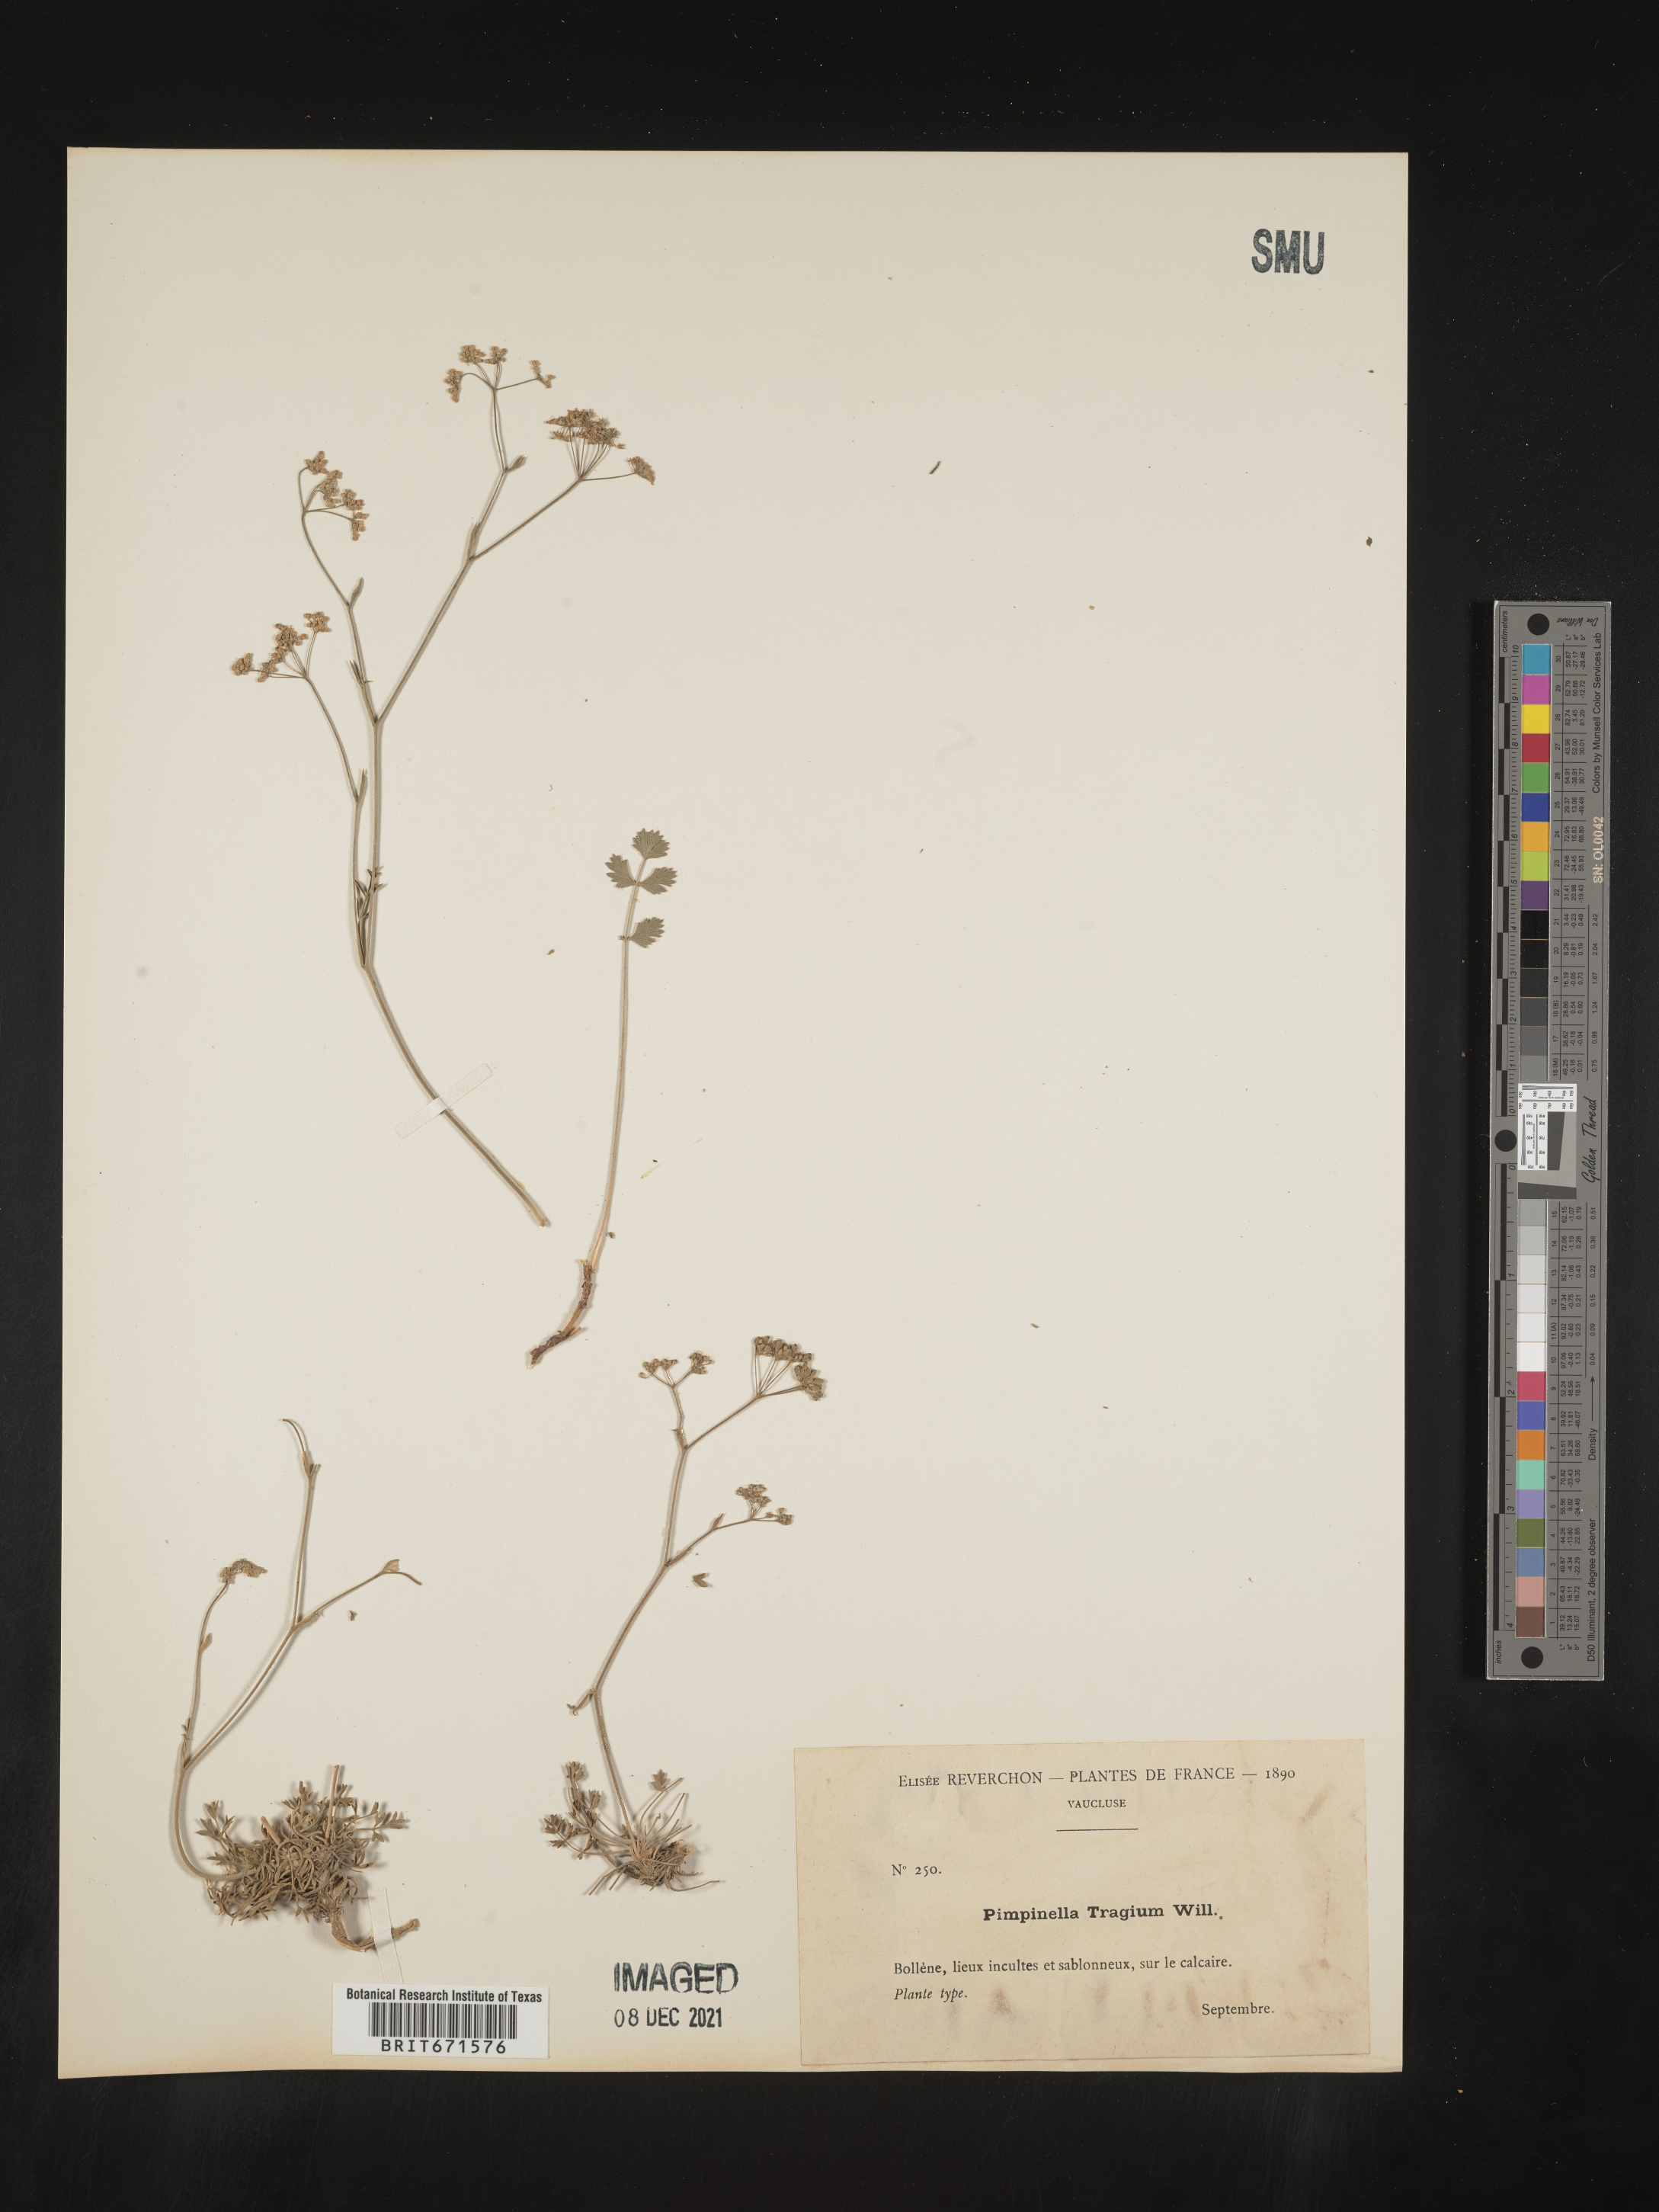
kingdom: Plantae
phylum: Tracheophyta
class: Magnoliopsida
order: Apiales
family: Apiaceae
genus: Pimpinella
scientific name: Pimpinella
